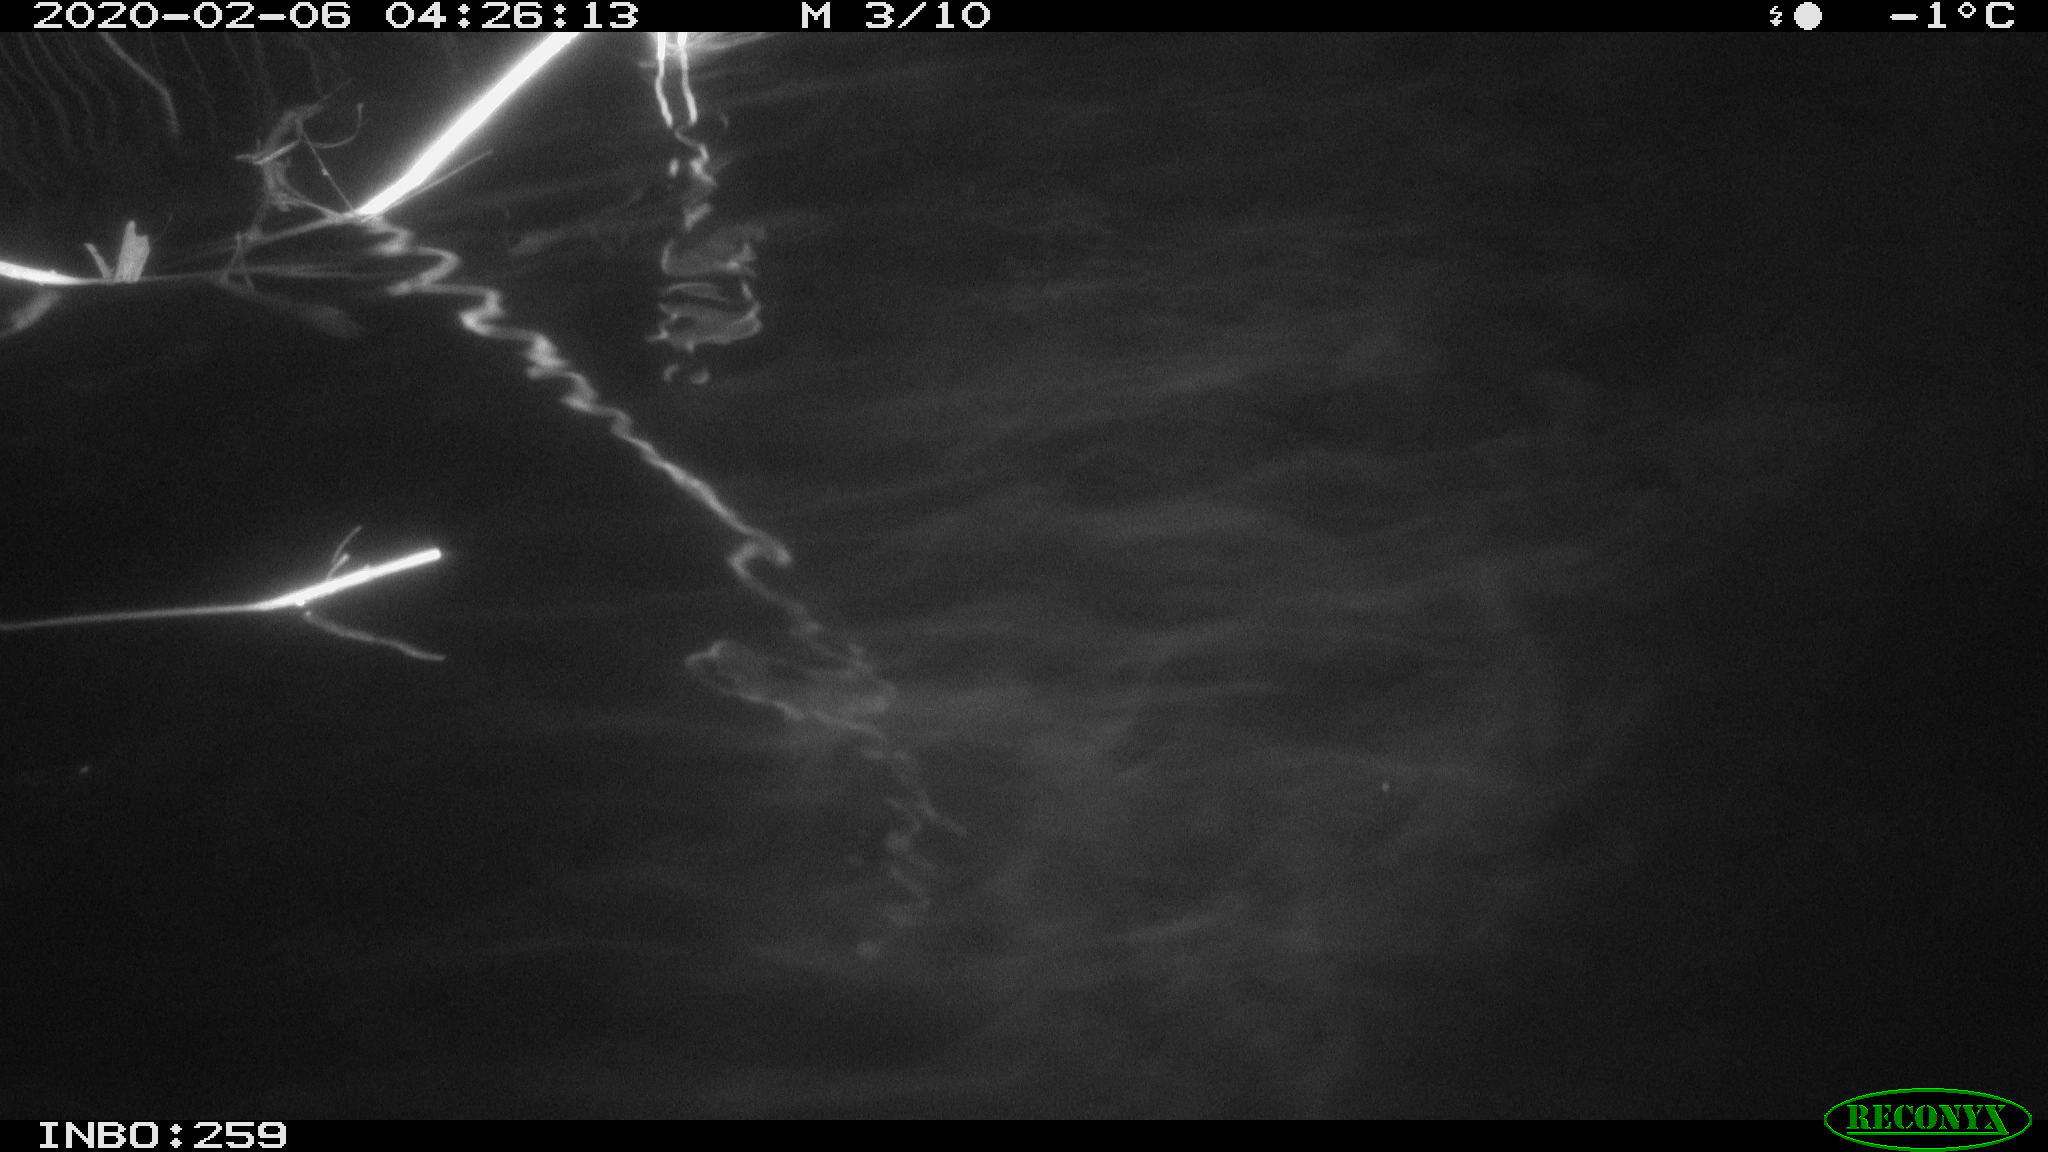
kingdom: Animalia
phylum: Chordata
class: Mammalia
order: Rodentia
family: Cricetidae
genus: Ondatra
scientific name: Ondatra zibethicus
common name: Muskrat
